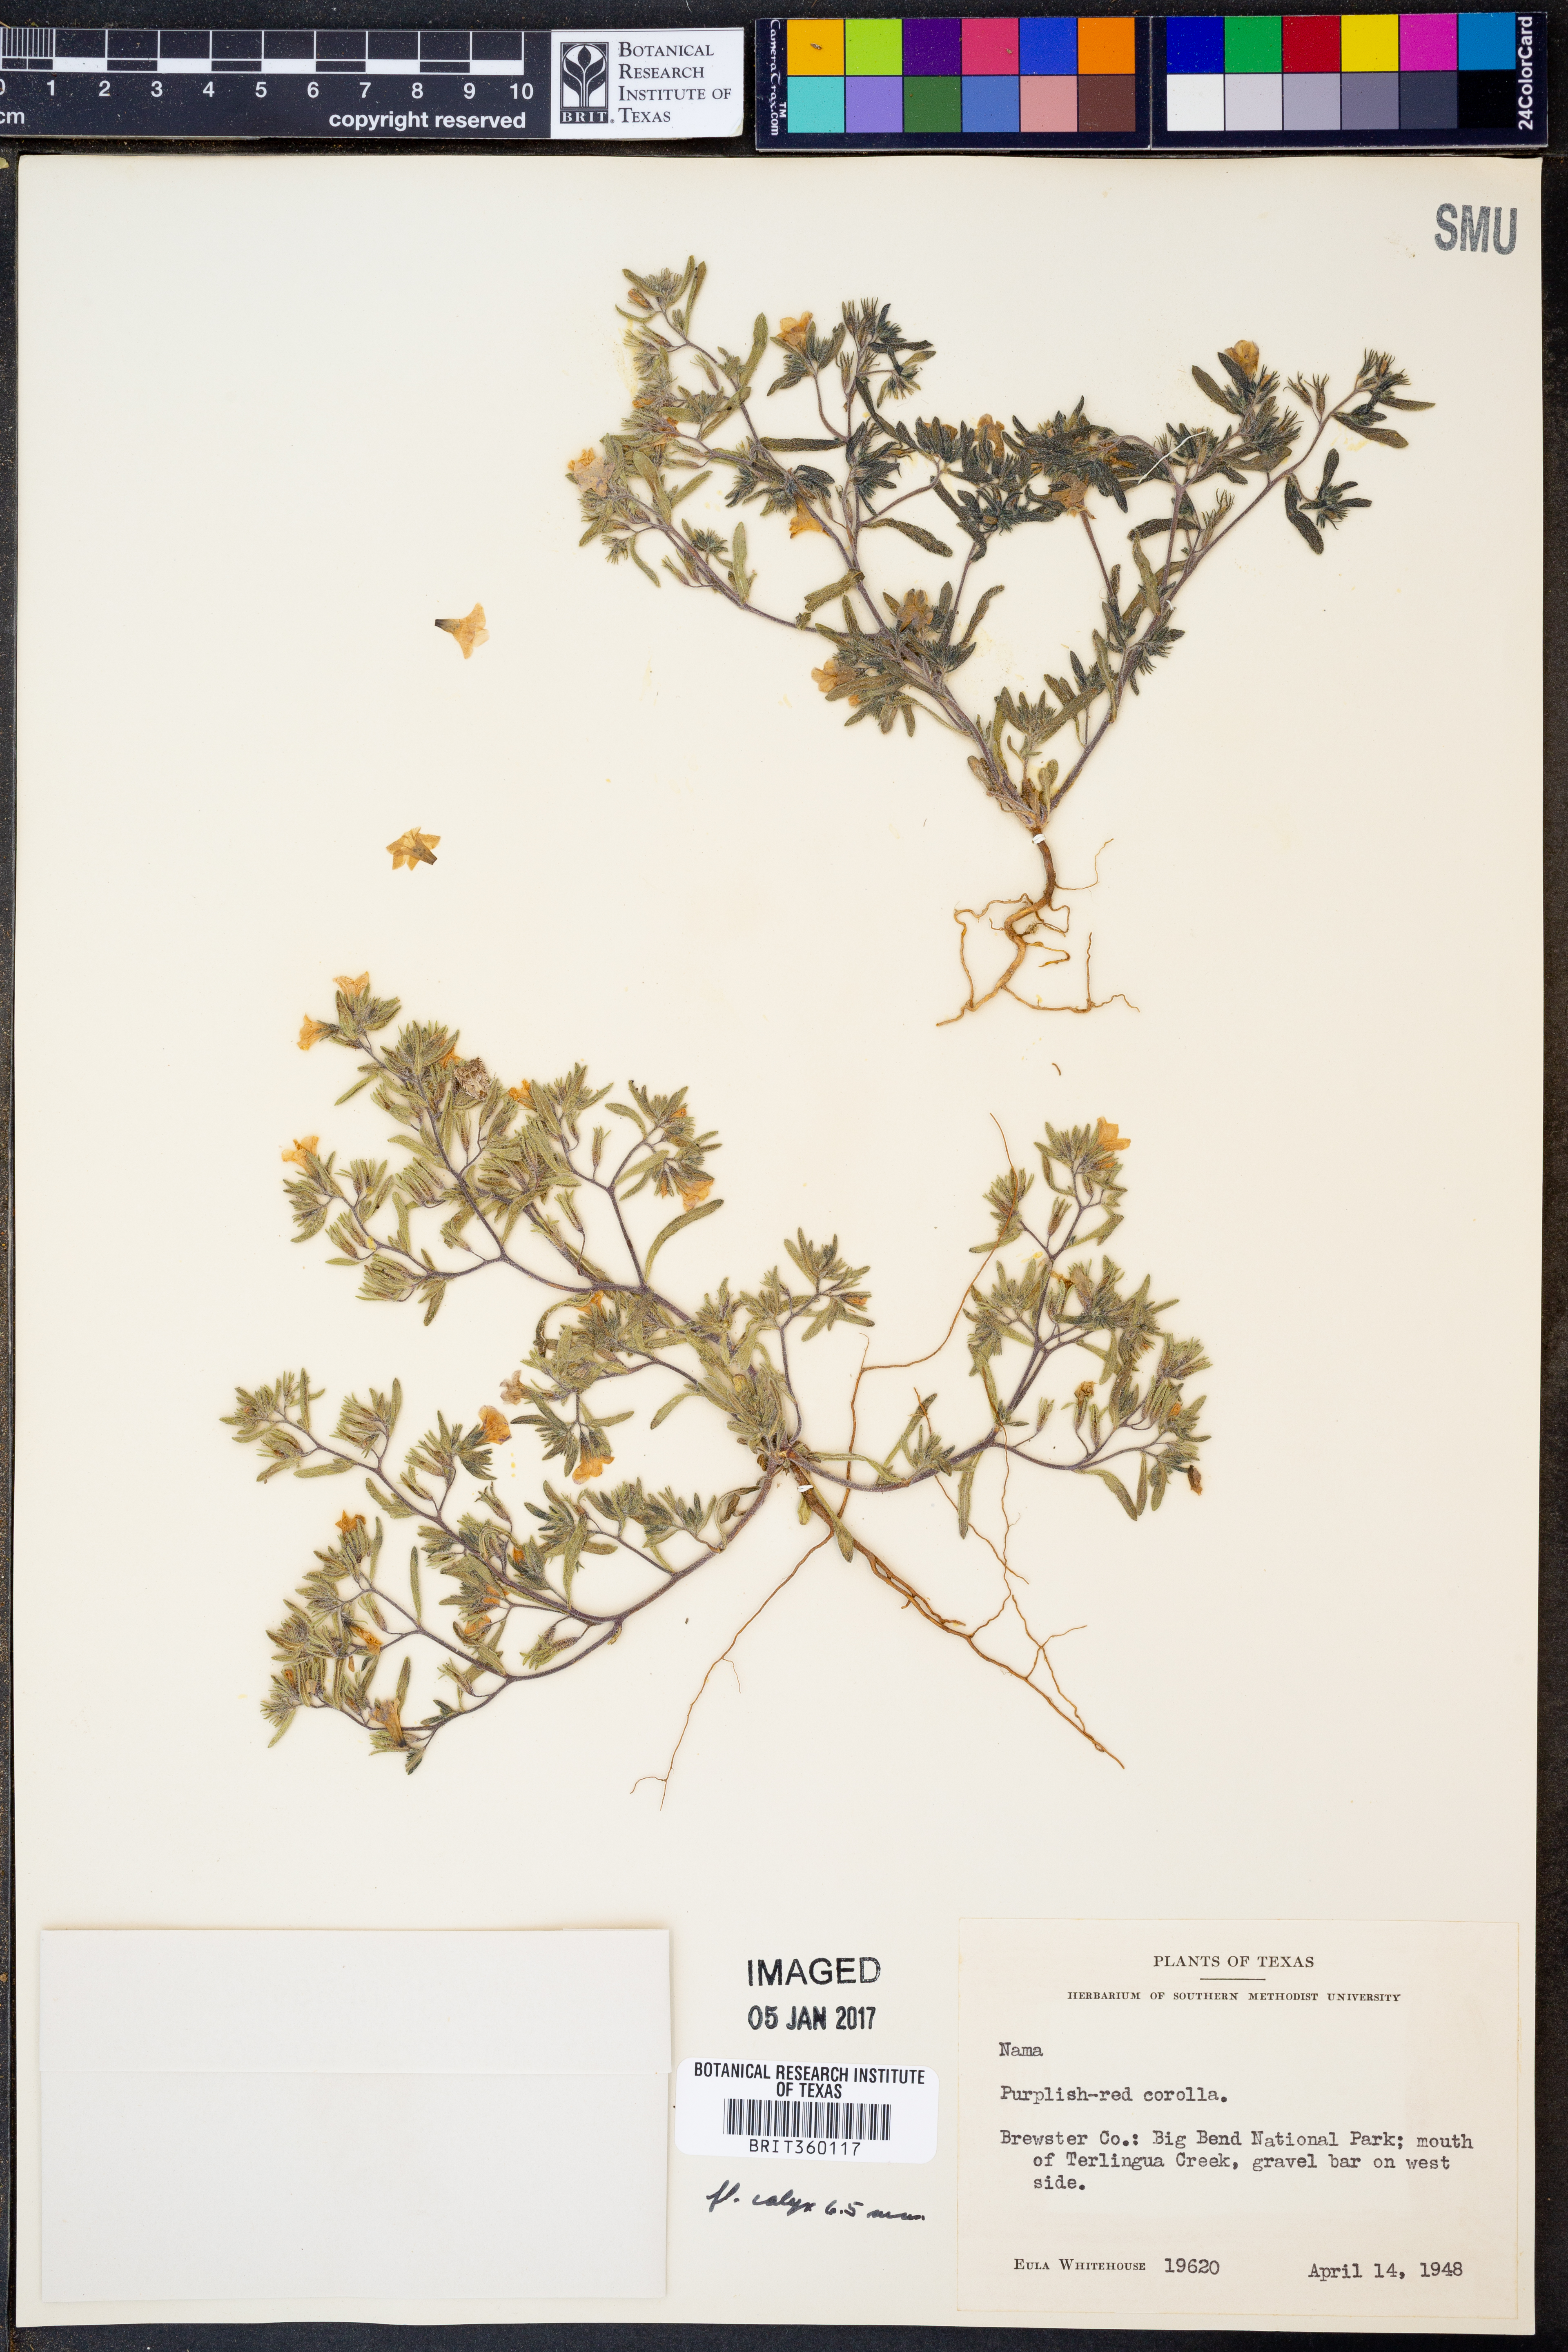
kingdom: Plantae
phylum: Tracheophyta
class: Magnoliopsida
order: Boraginales
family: Namaceae
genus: Nama
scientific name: Nama
